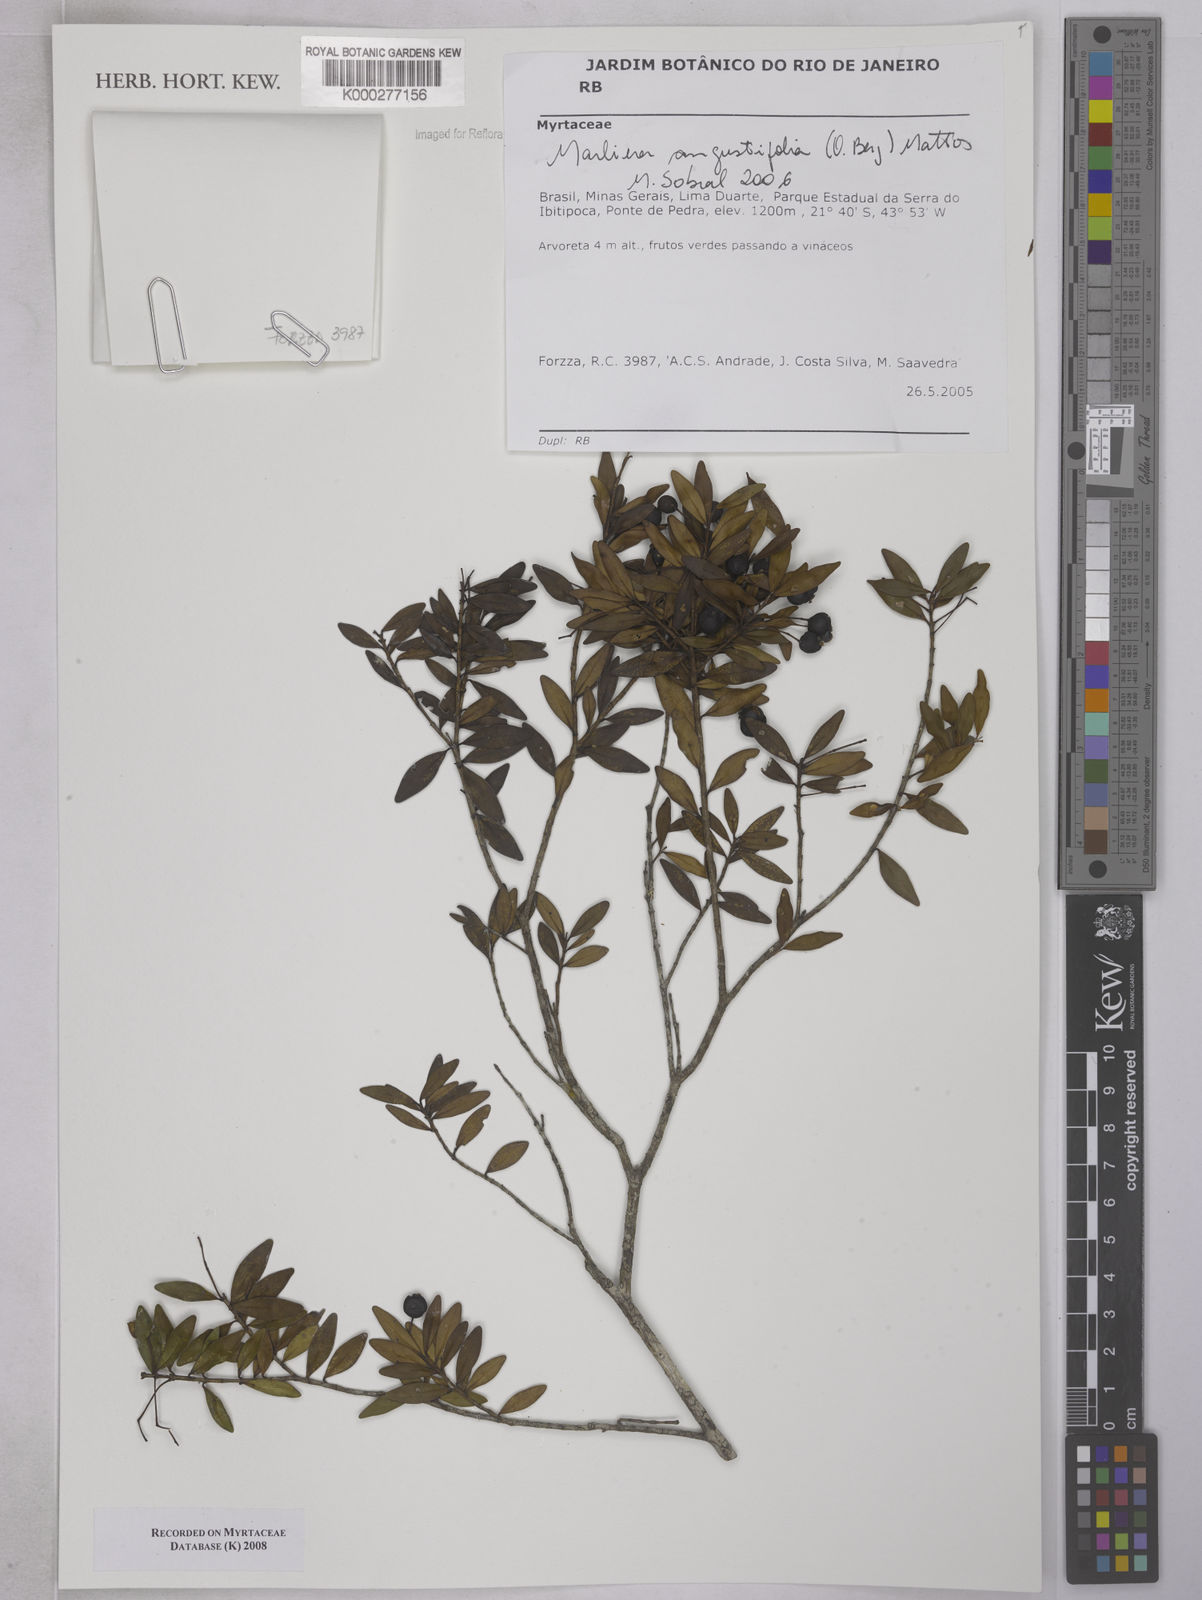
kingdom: Plantae
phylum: Tracheophyta
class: Magnoliopsida
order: Myrtales
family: Myrtaceae
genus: Myrcia
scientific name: Myrcia lenheirensis
